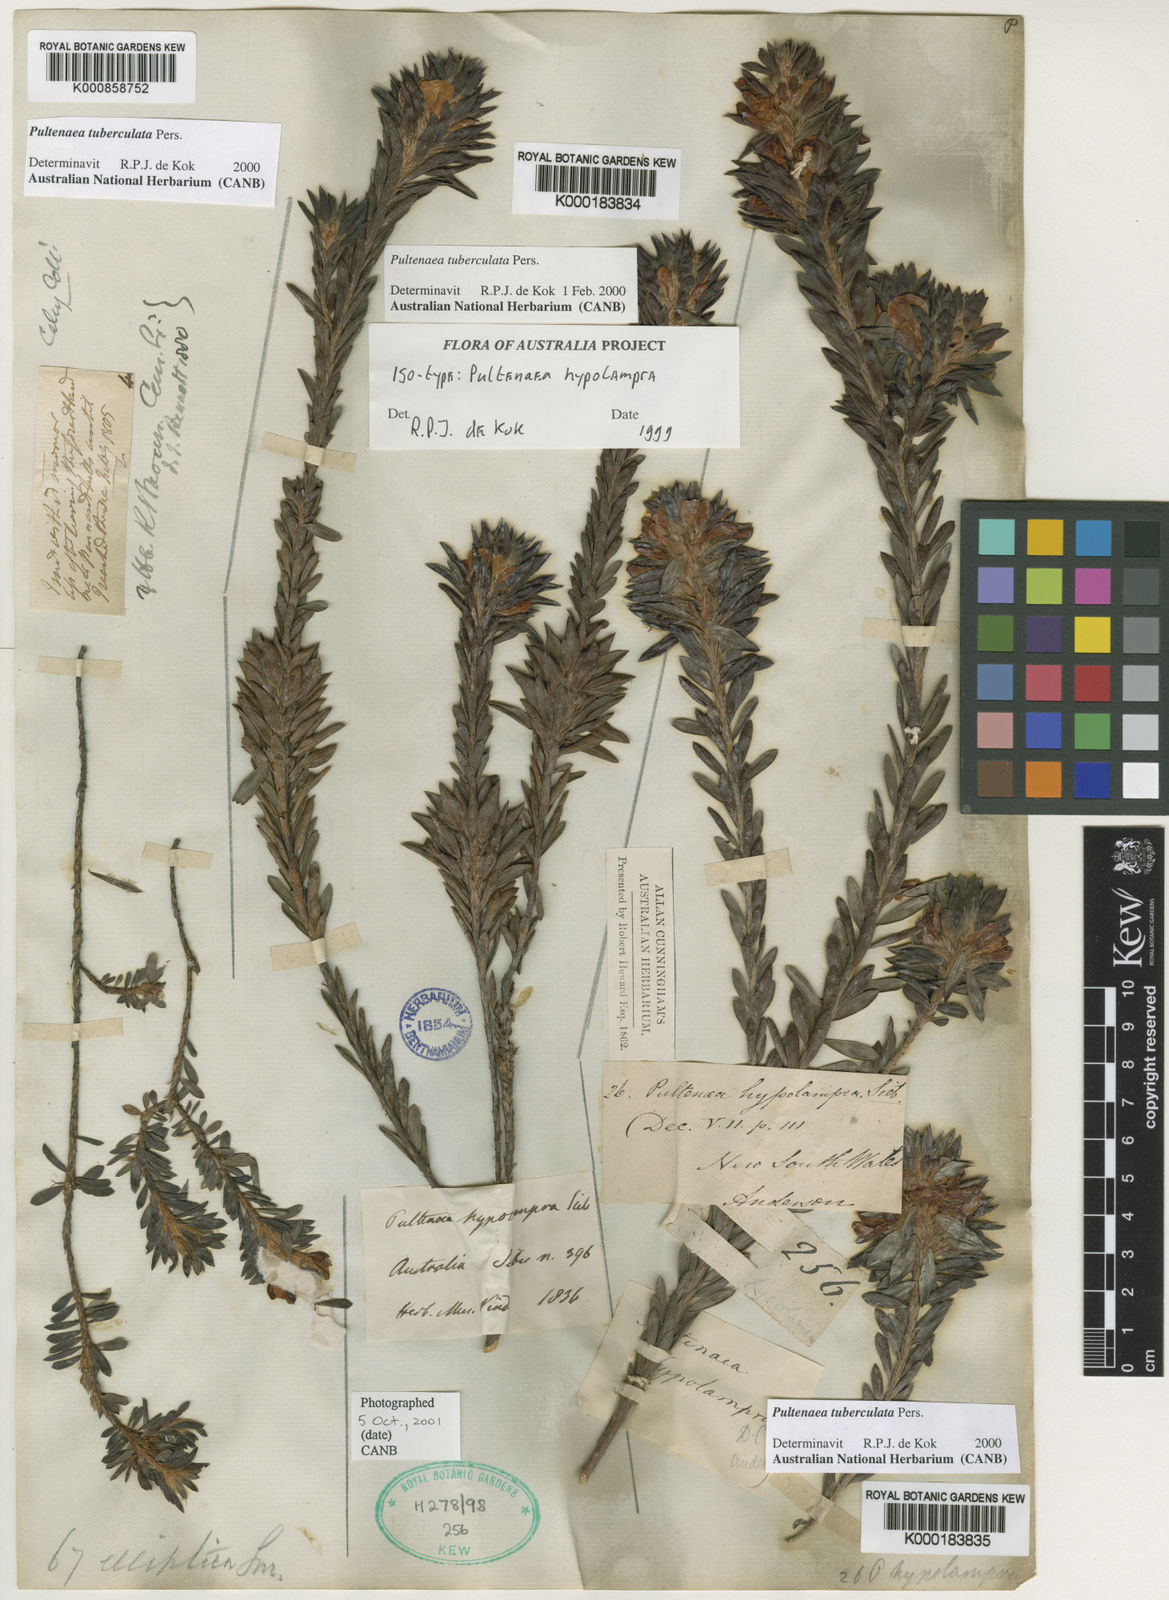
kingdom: Plantae
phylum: Tracheophyta
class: Magnoliopsida
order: Fabales
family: Fabaceae
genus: Pultenaea
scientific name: Pultenaea tuberculata
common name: Wreath bush-pea
